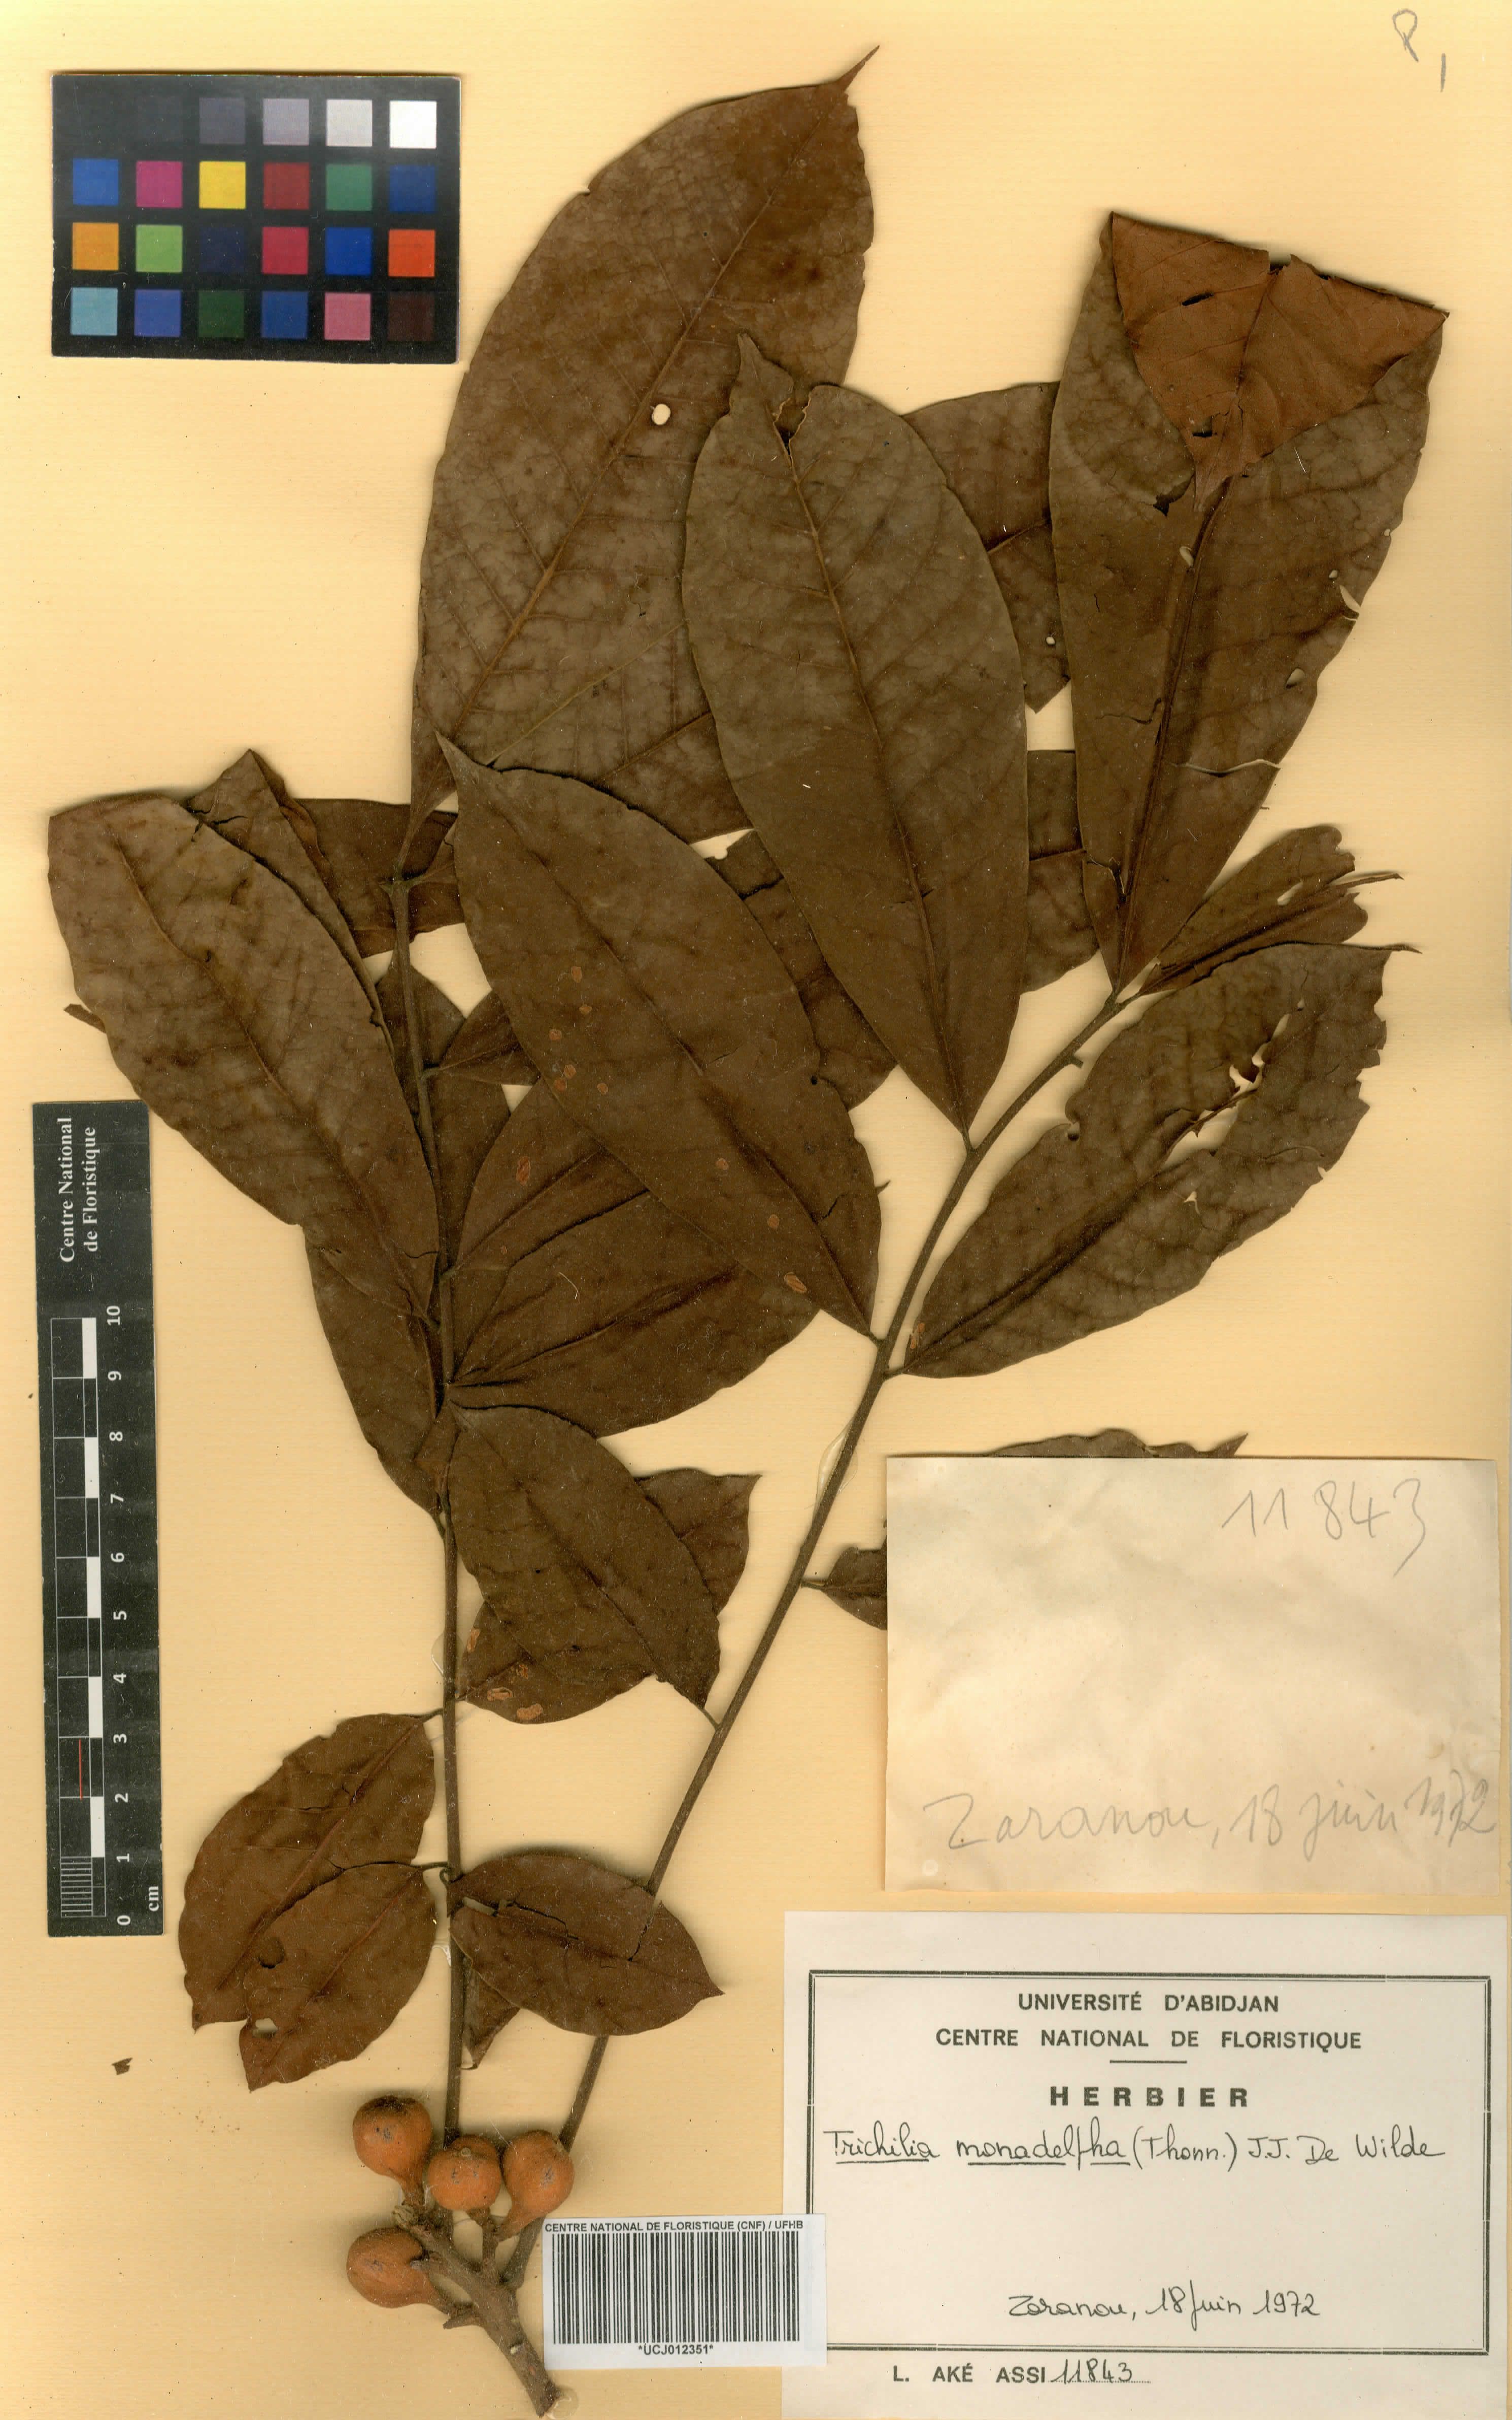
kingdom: Plantae
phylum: Tracheophyta
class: Magnoliopsida
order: Sapindales
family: Meliaceae
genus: Trichilia
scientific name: Trichilia monadelpha
